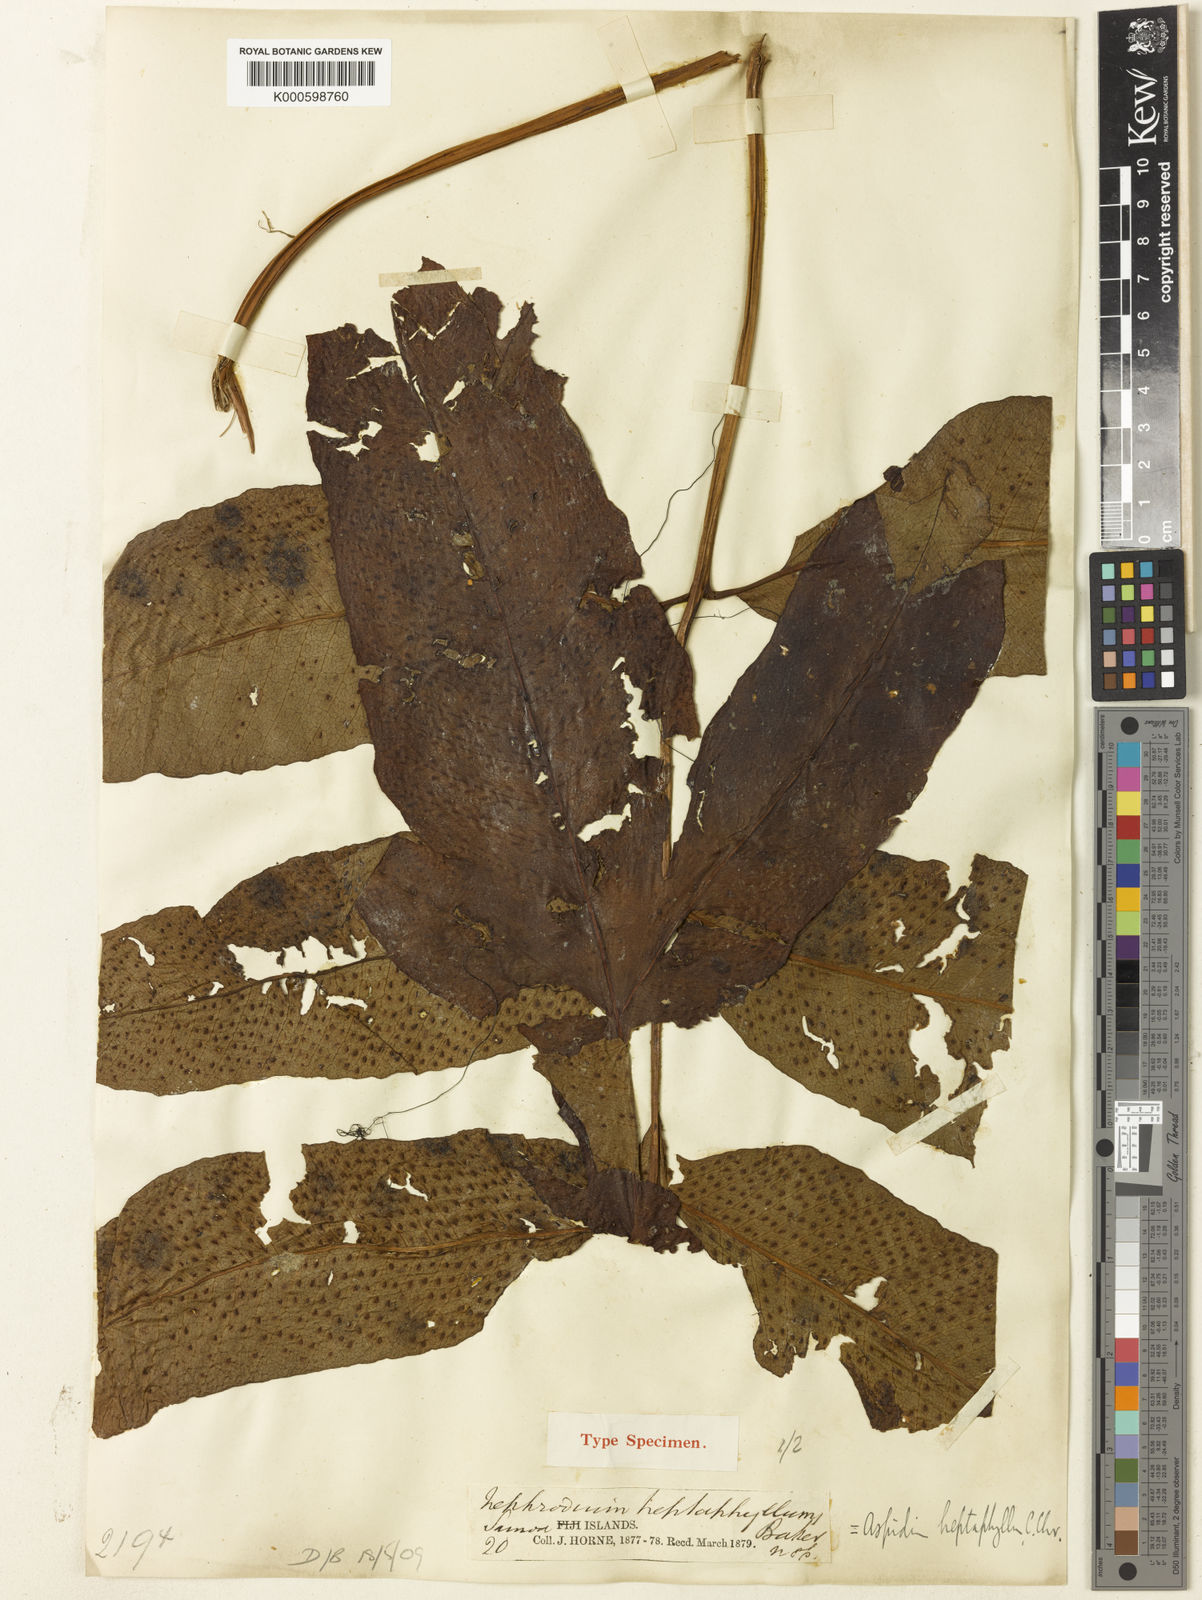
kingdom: Plantae
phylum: Tracheophyta
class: Polypodiopsida
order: Polypodiales
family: Tectariaceae
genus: Tectaria
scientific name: Tectaria crenata
